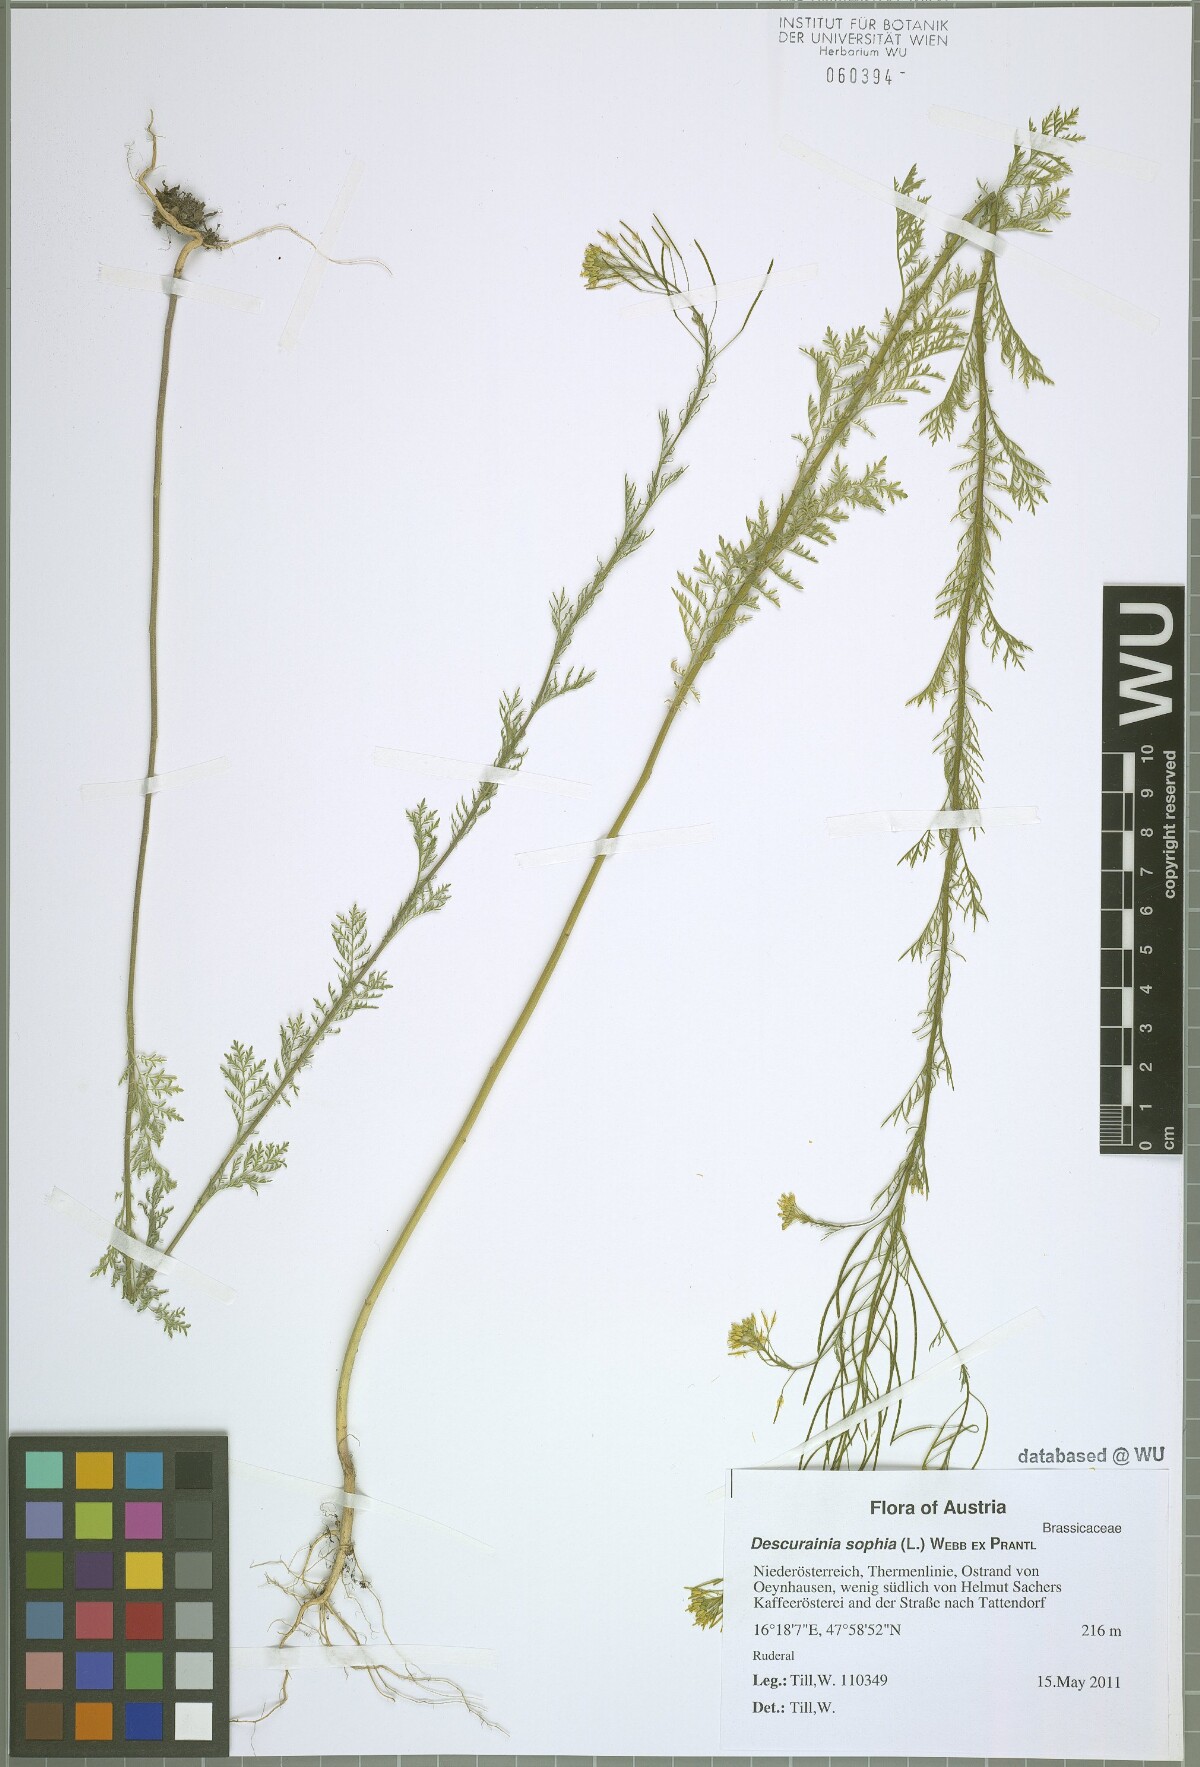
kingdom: Plantae
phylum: Tracheophyta
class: Magnoliopsida
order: Brassicales
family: Brassicaceae
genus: Descurainia
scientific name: Descurainia sophia
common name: Flixweed
